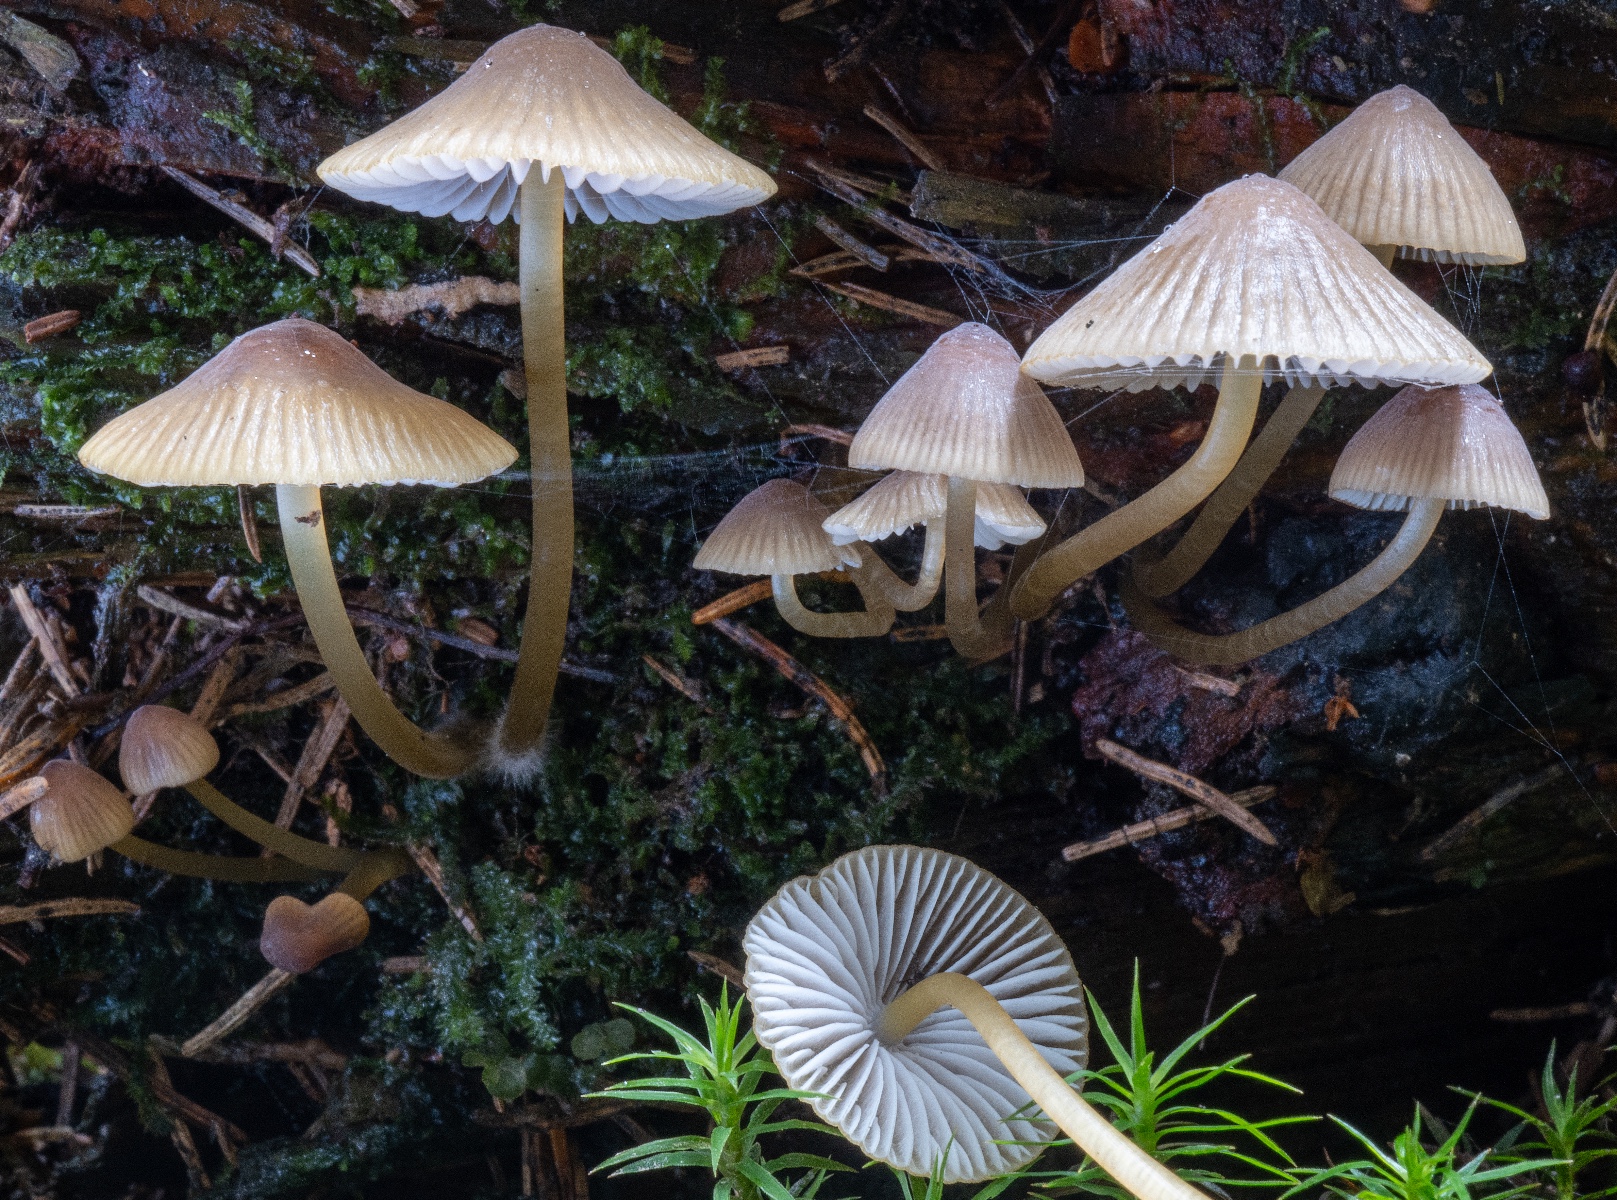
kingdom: Fungi
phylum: Basidiomycota
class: Agaricomycetes
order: Agaricales
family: Mycenaceae
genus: Mycena
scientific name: Mycena viridimarginata
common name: Olive edge bonnet
